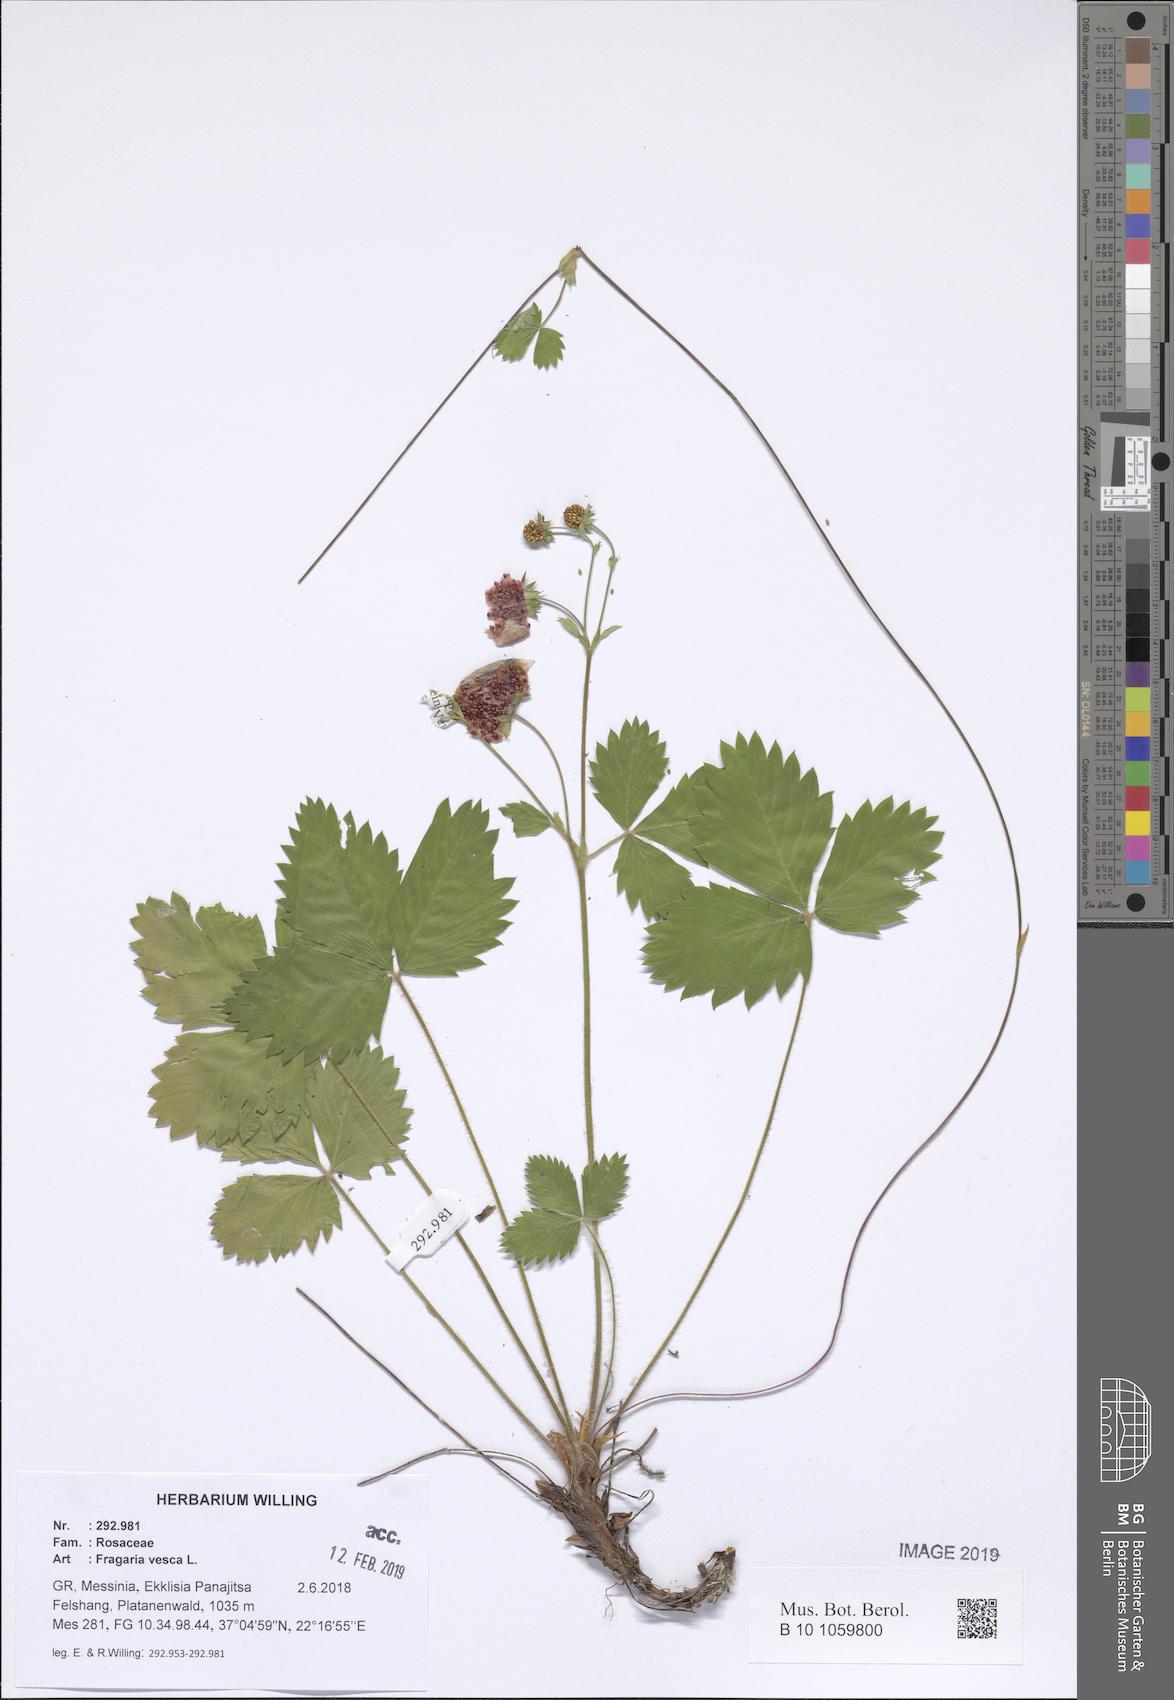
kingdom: Plantae
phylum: Tracheophyta
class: Magnoliopsida
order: Rosales
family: Rosaceae
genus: Fragaria
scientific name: Fragaria vesca
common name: Wild strawberry
